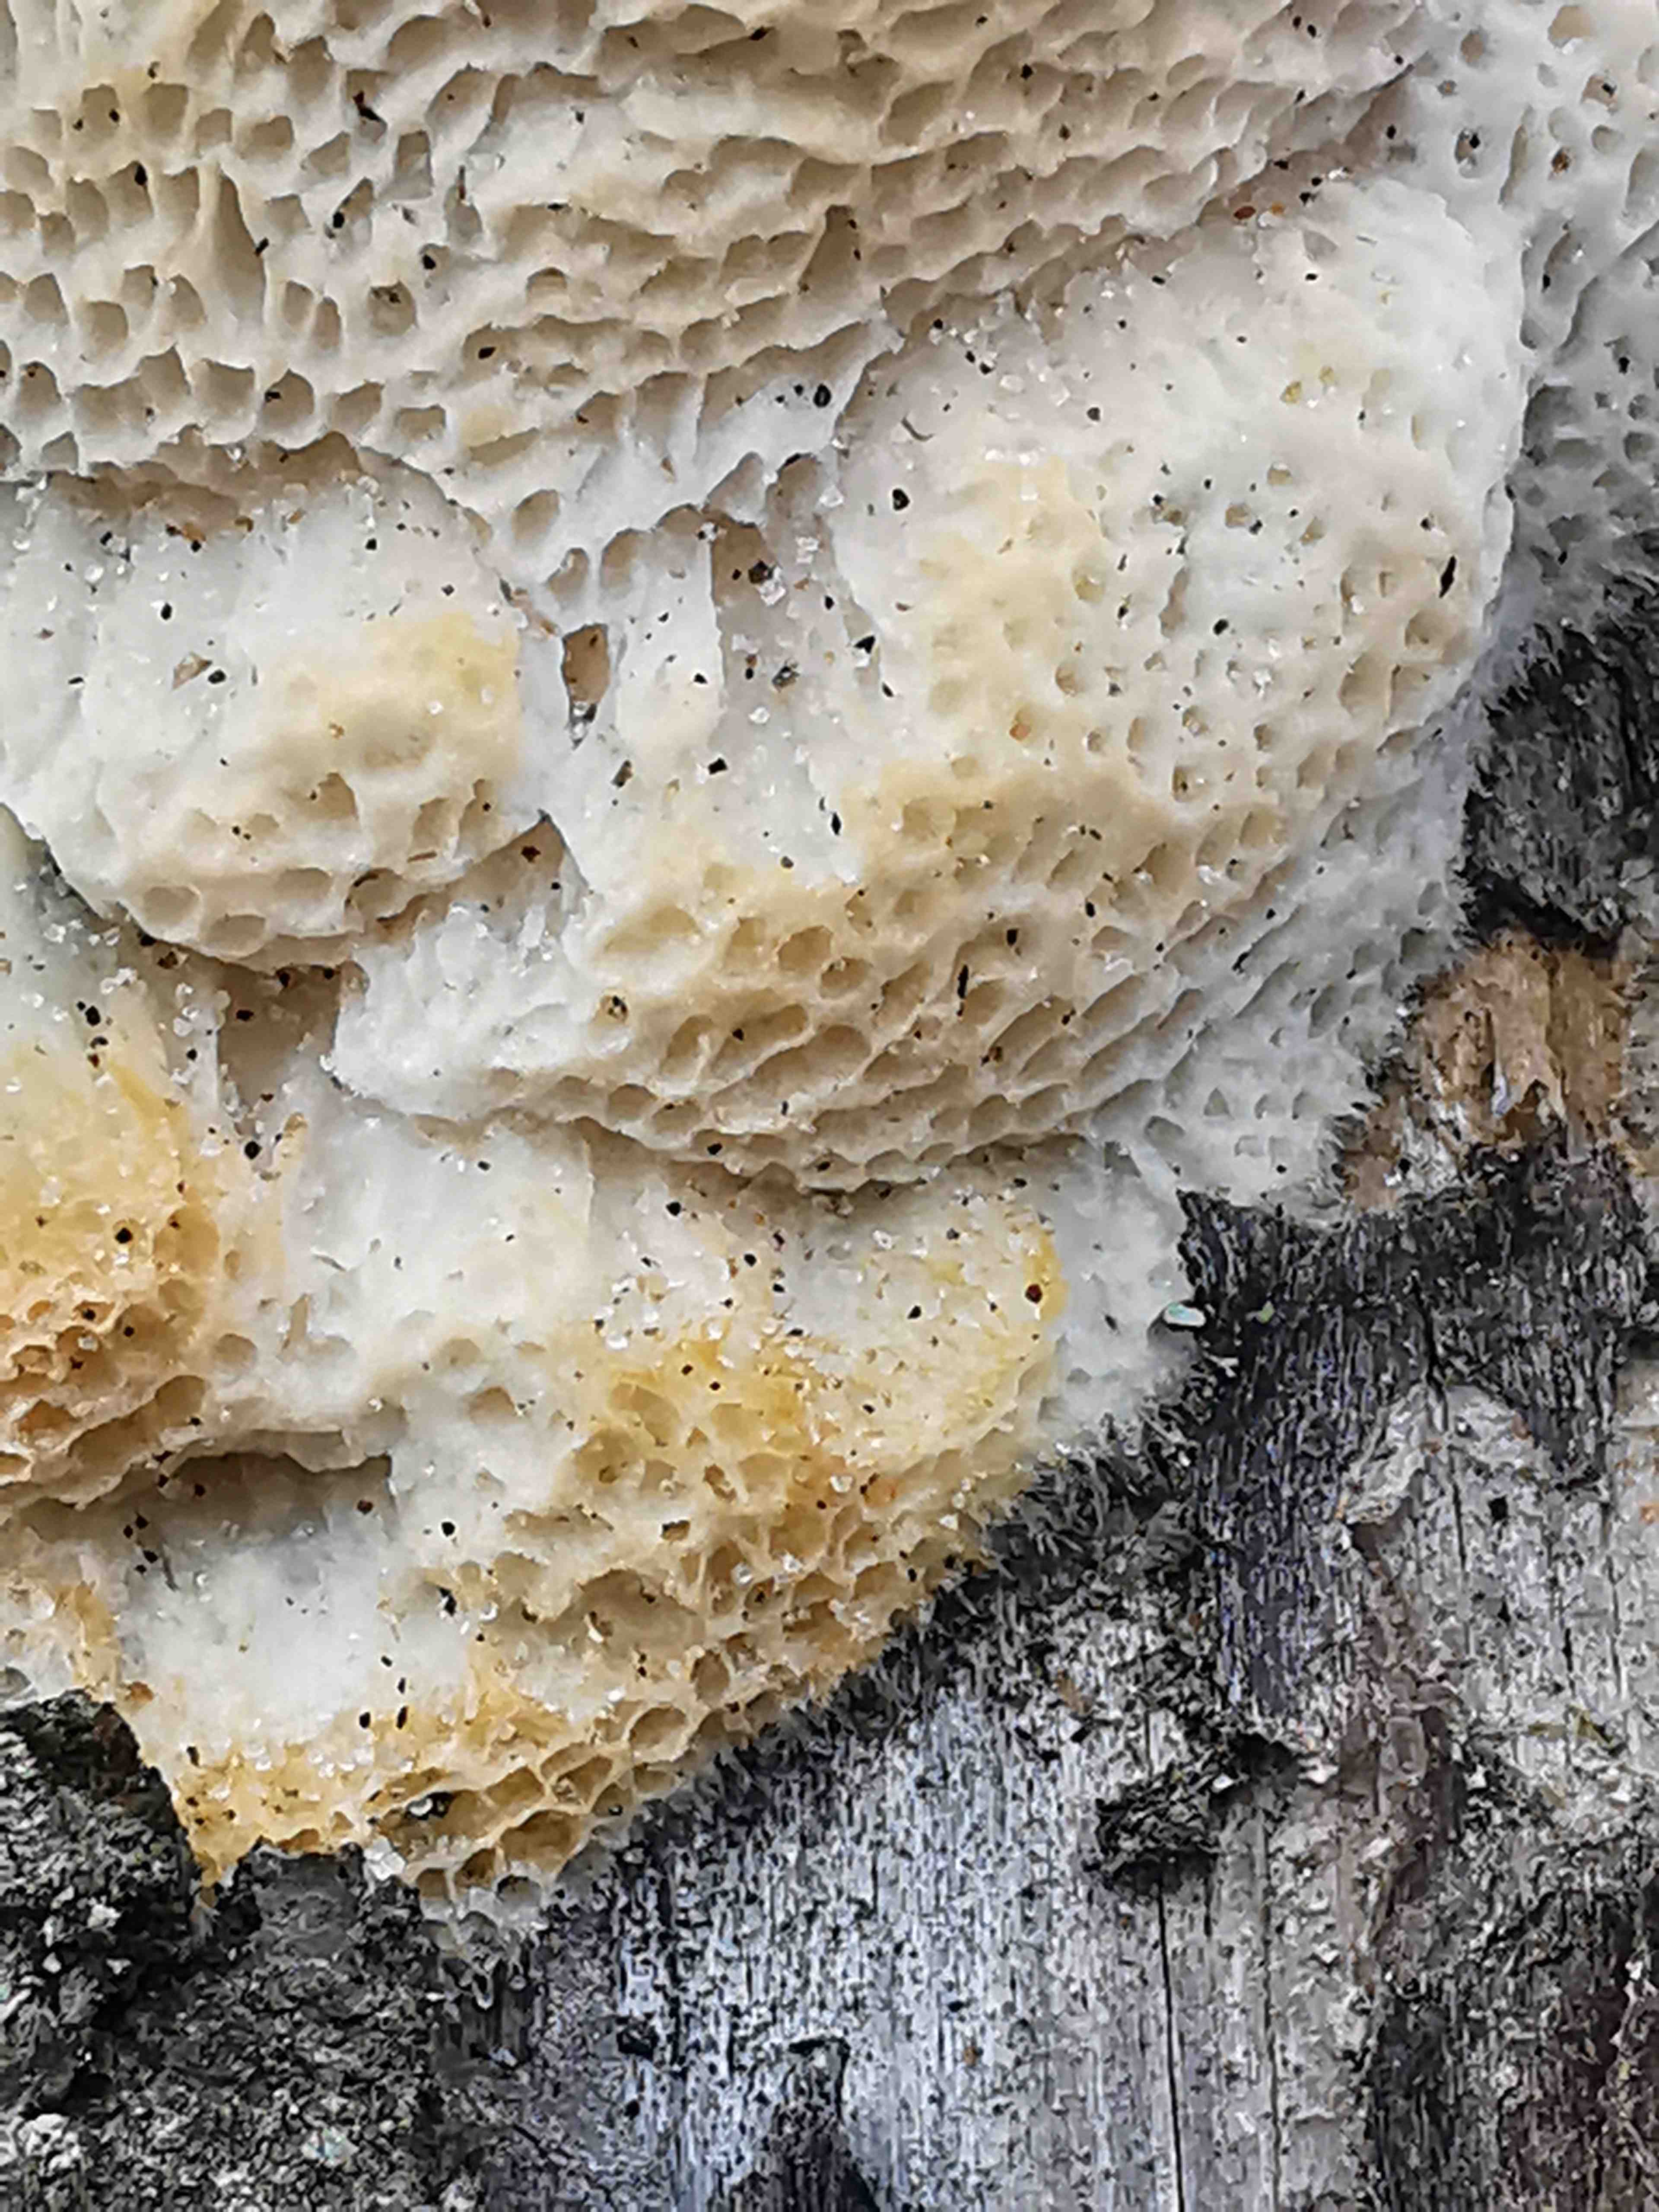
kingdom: Fungi
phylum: Basidiomycota
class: Agaricomycetes
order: Polyporales
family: Polyporaceae
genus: Diplomitoporus
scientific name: Diplomitoporus flavescens
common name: fyrre-elastikporesvamp
